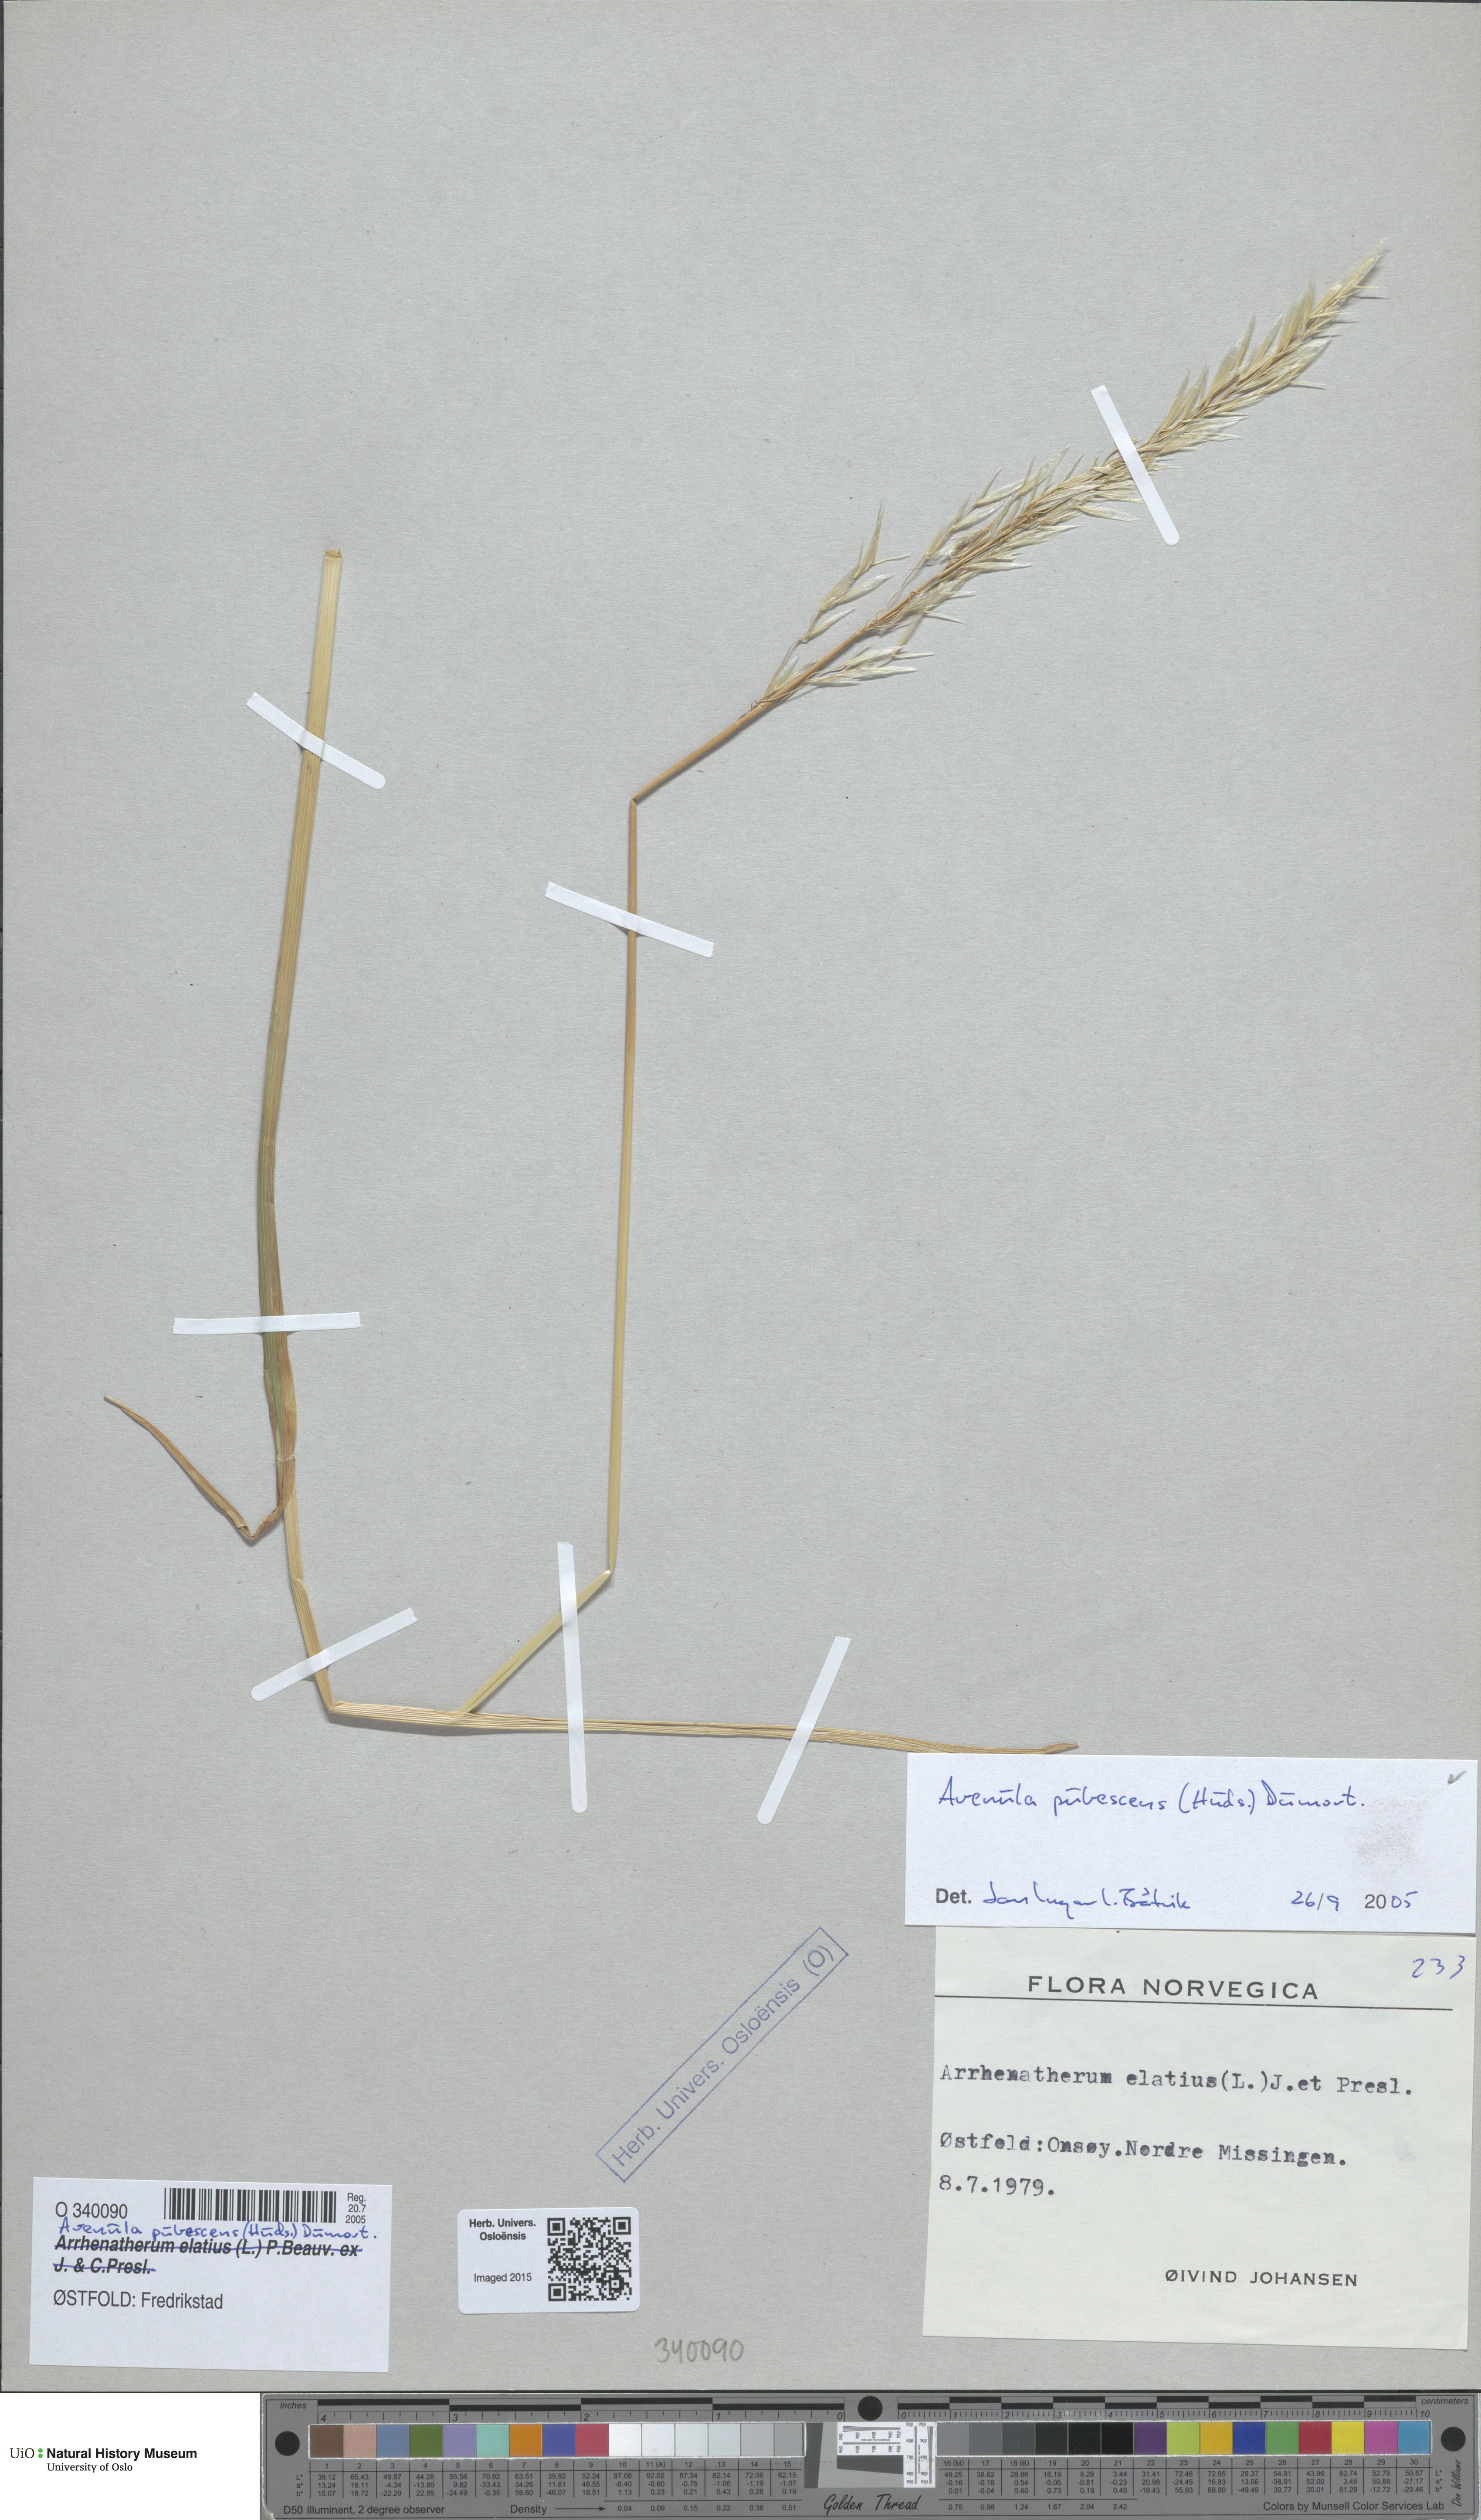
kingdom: Plantae
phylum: Tracheophyta
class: Liliopsida
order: Poales
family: Poaceae
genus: Avenula
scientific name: Avenula pubescens
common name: Downy alpine oatgrass
